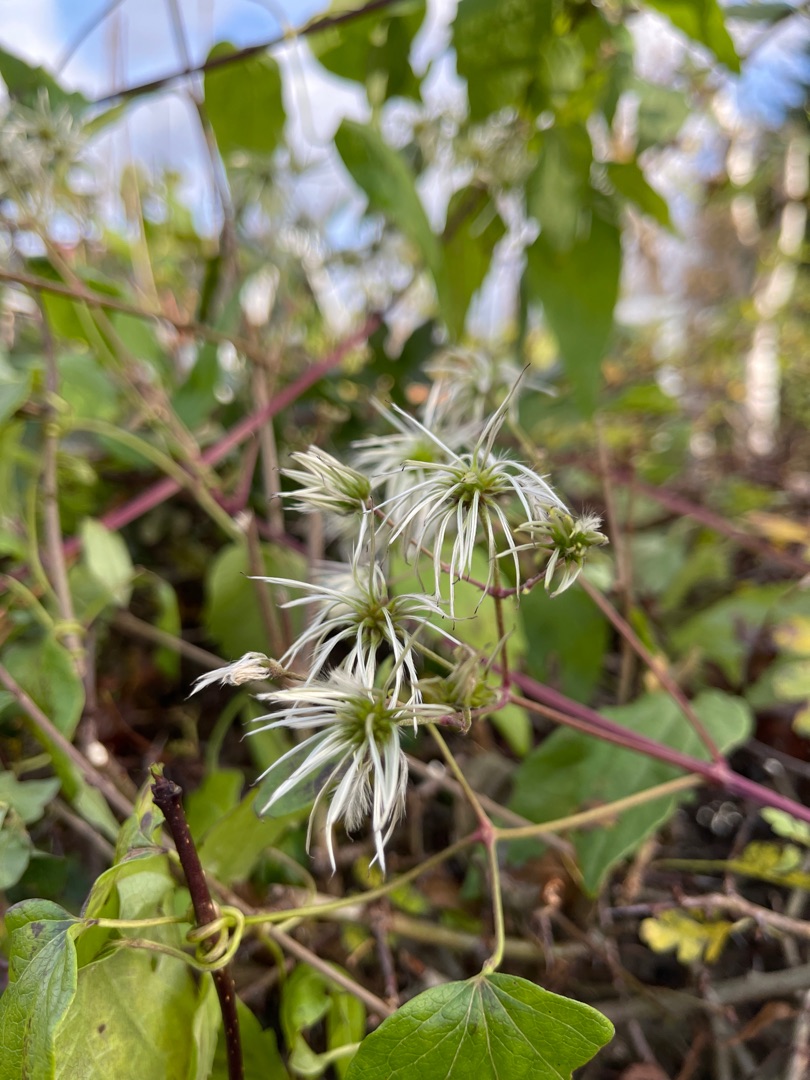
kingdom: Plantae
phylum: Tracheophyta
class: Magnoliopsida
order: Ranunculales
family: Ranunculaceae
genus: Clematis
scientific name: Clematis vitalba
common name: Skovranke
